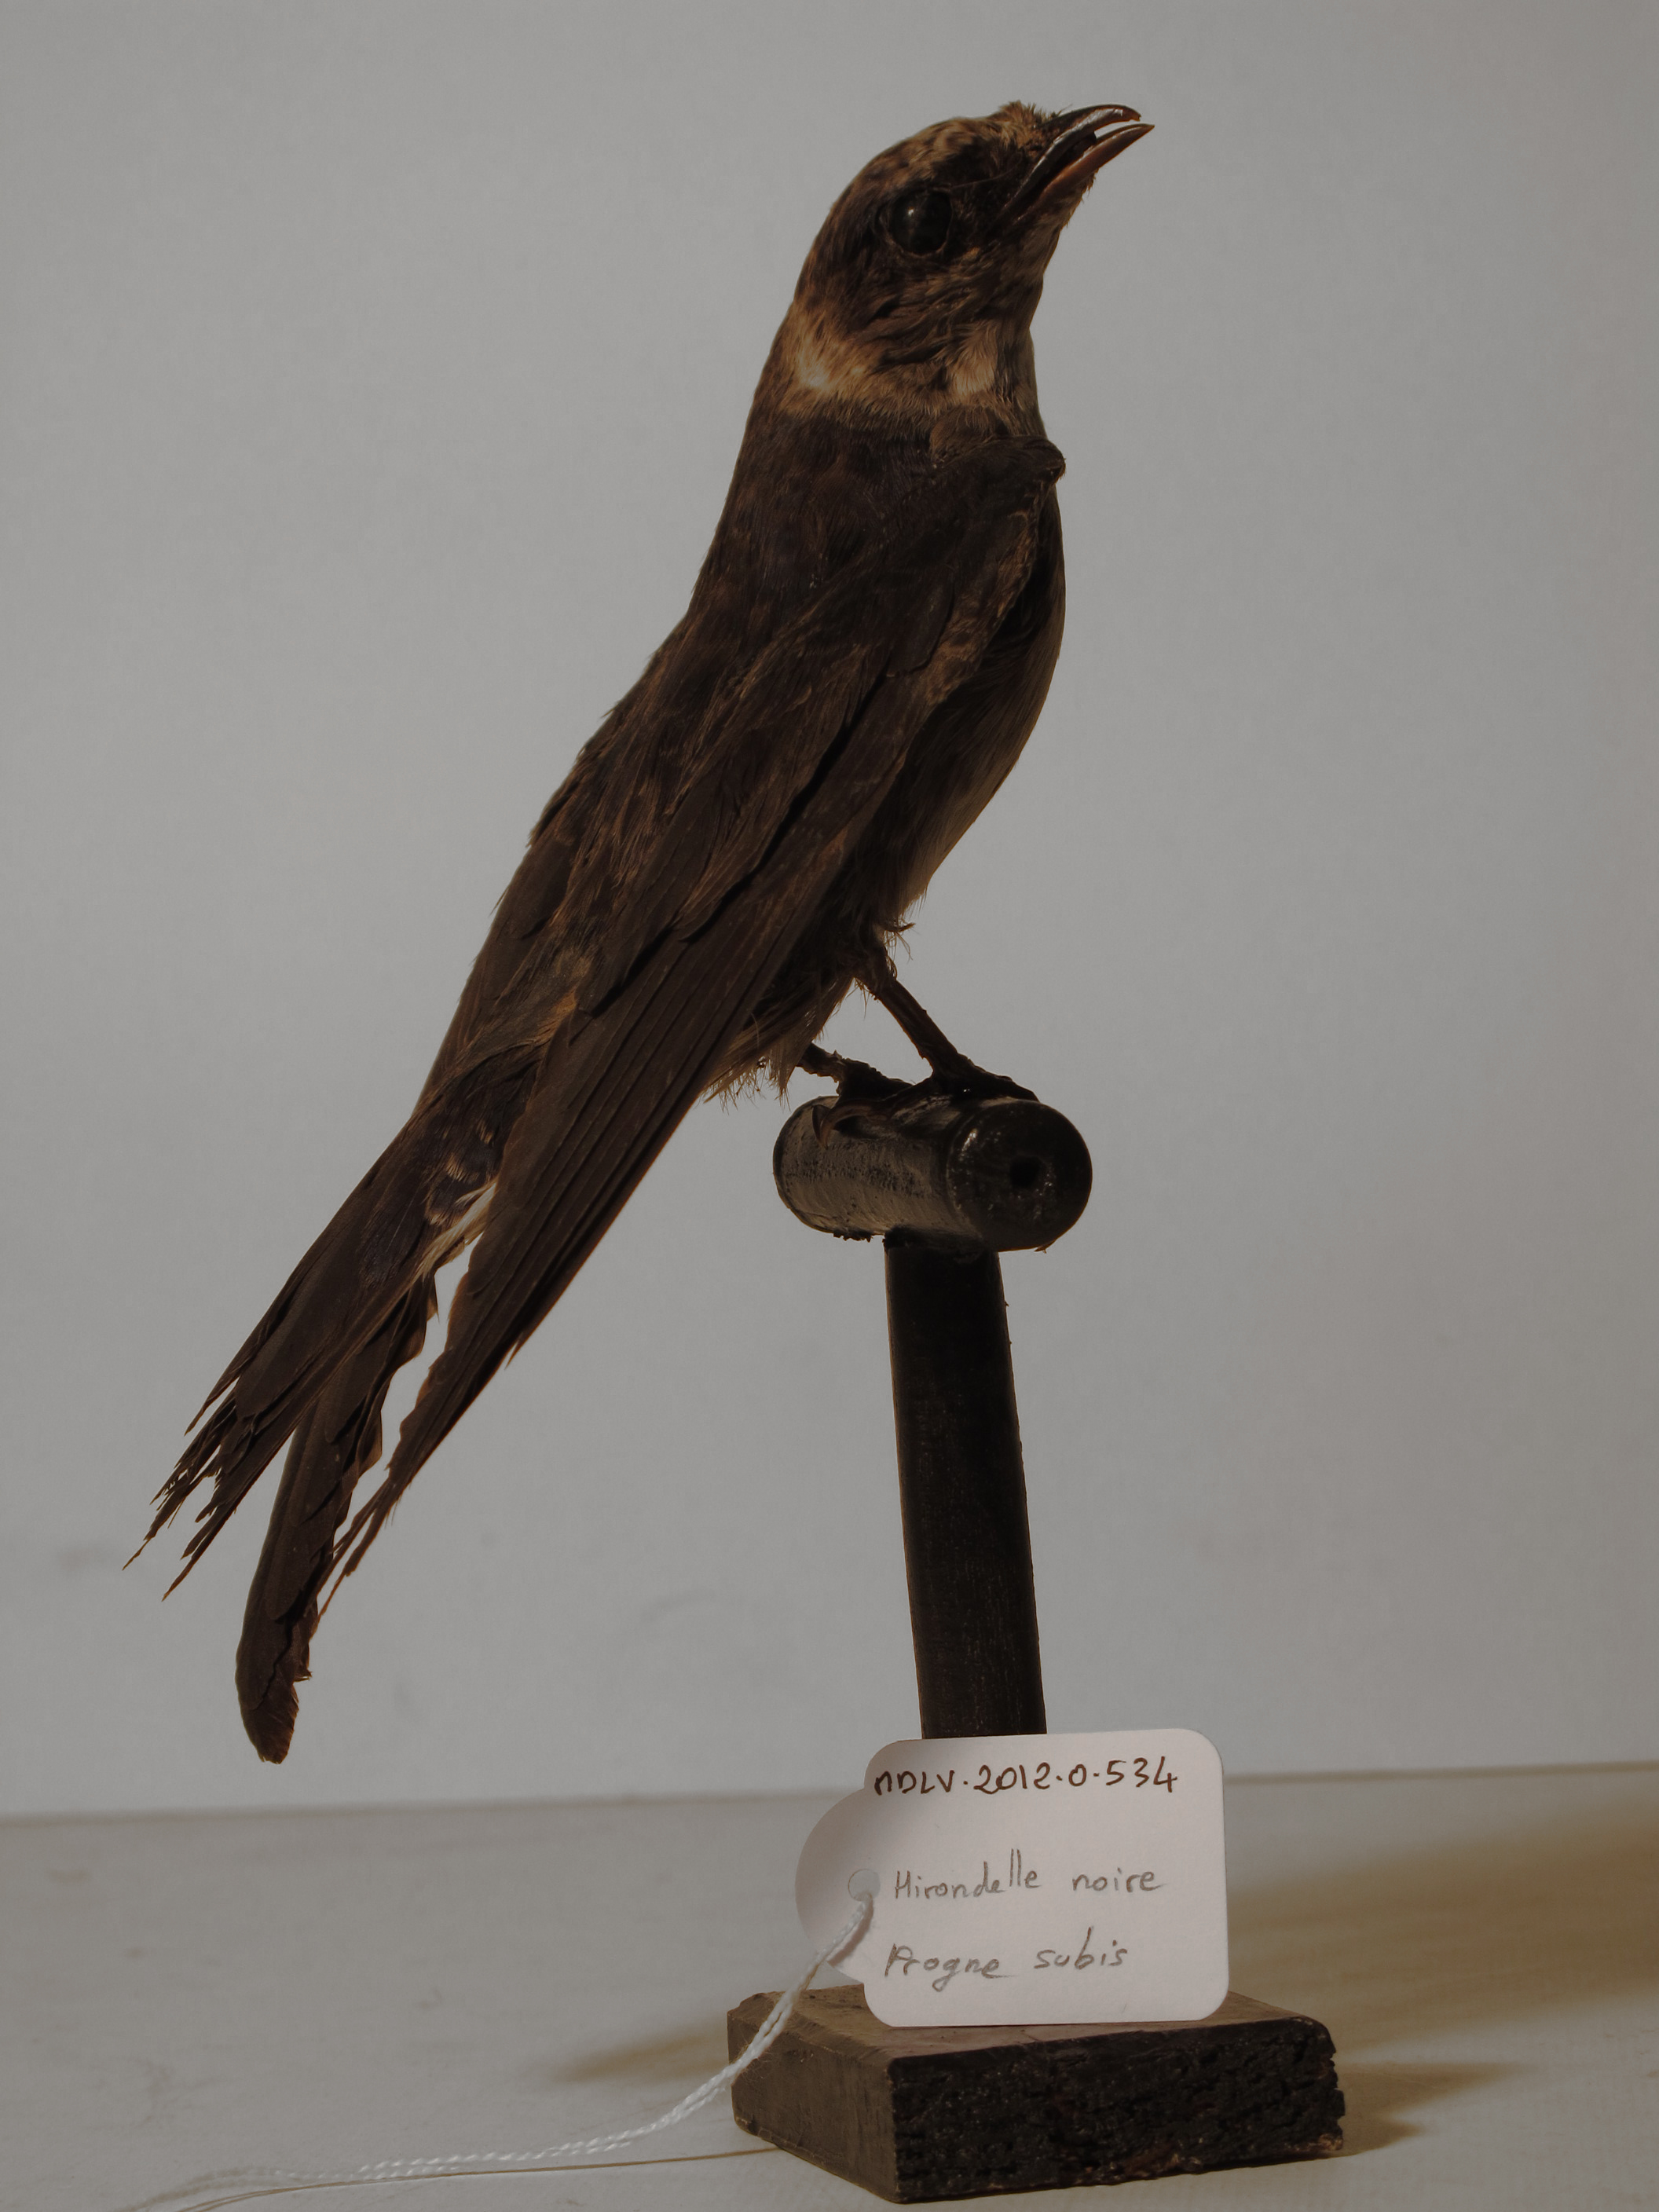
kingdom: Animalia
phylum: Chordata
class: Aves
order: Passeriformes
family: Hirundinidae
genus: Progne
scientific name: Progne subis
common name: Purple Martin
